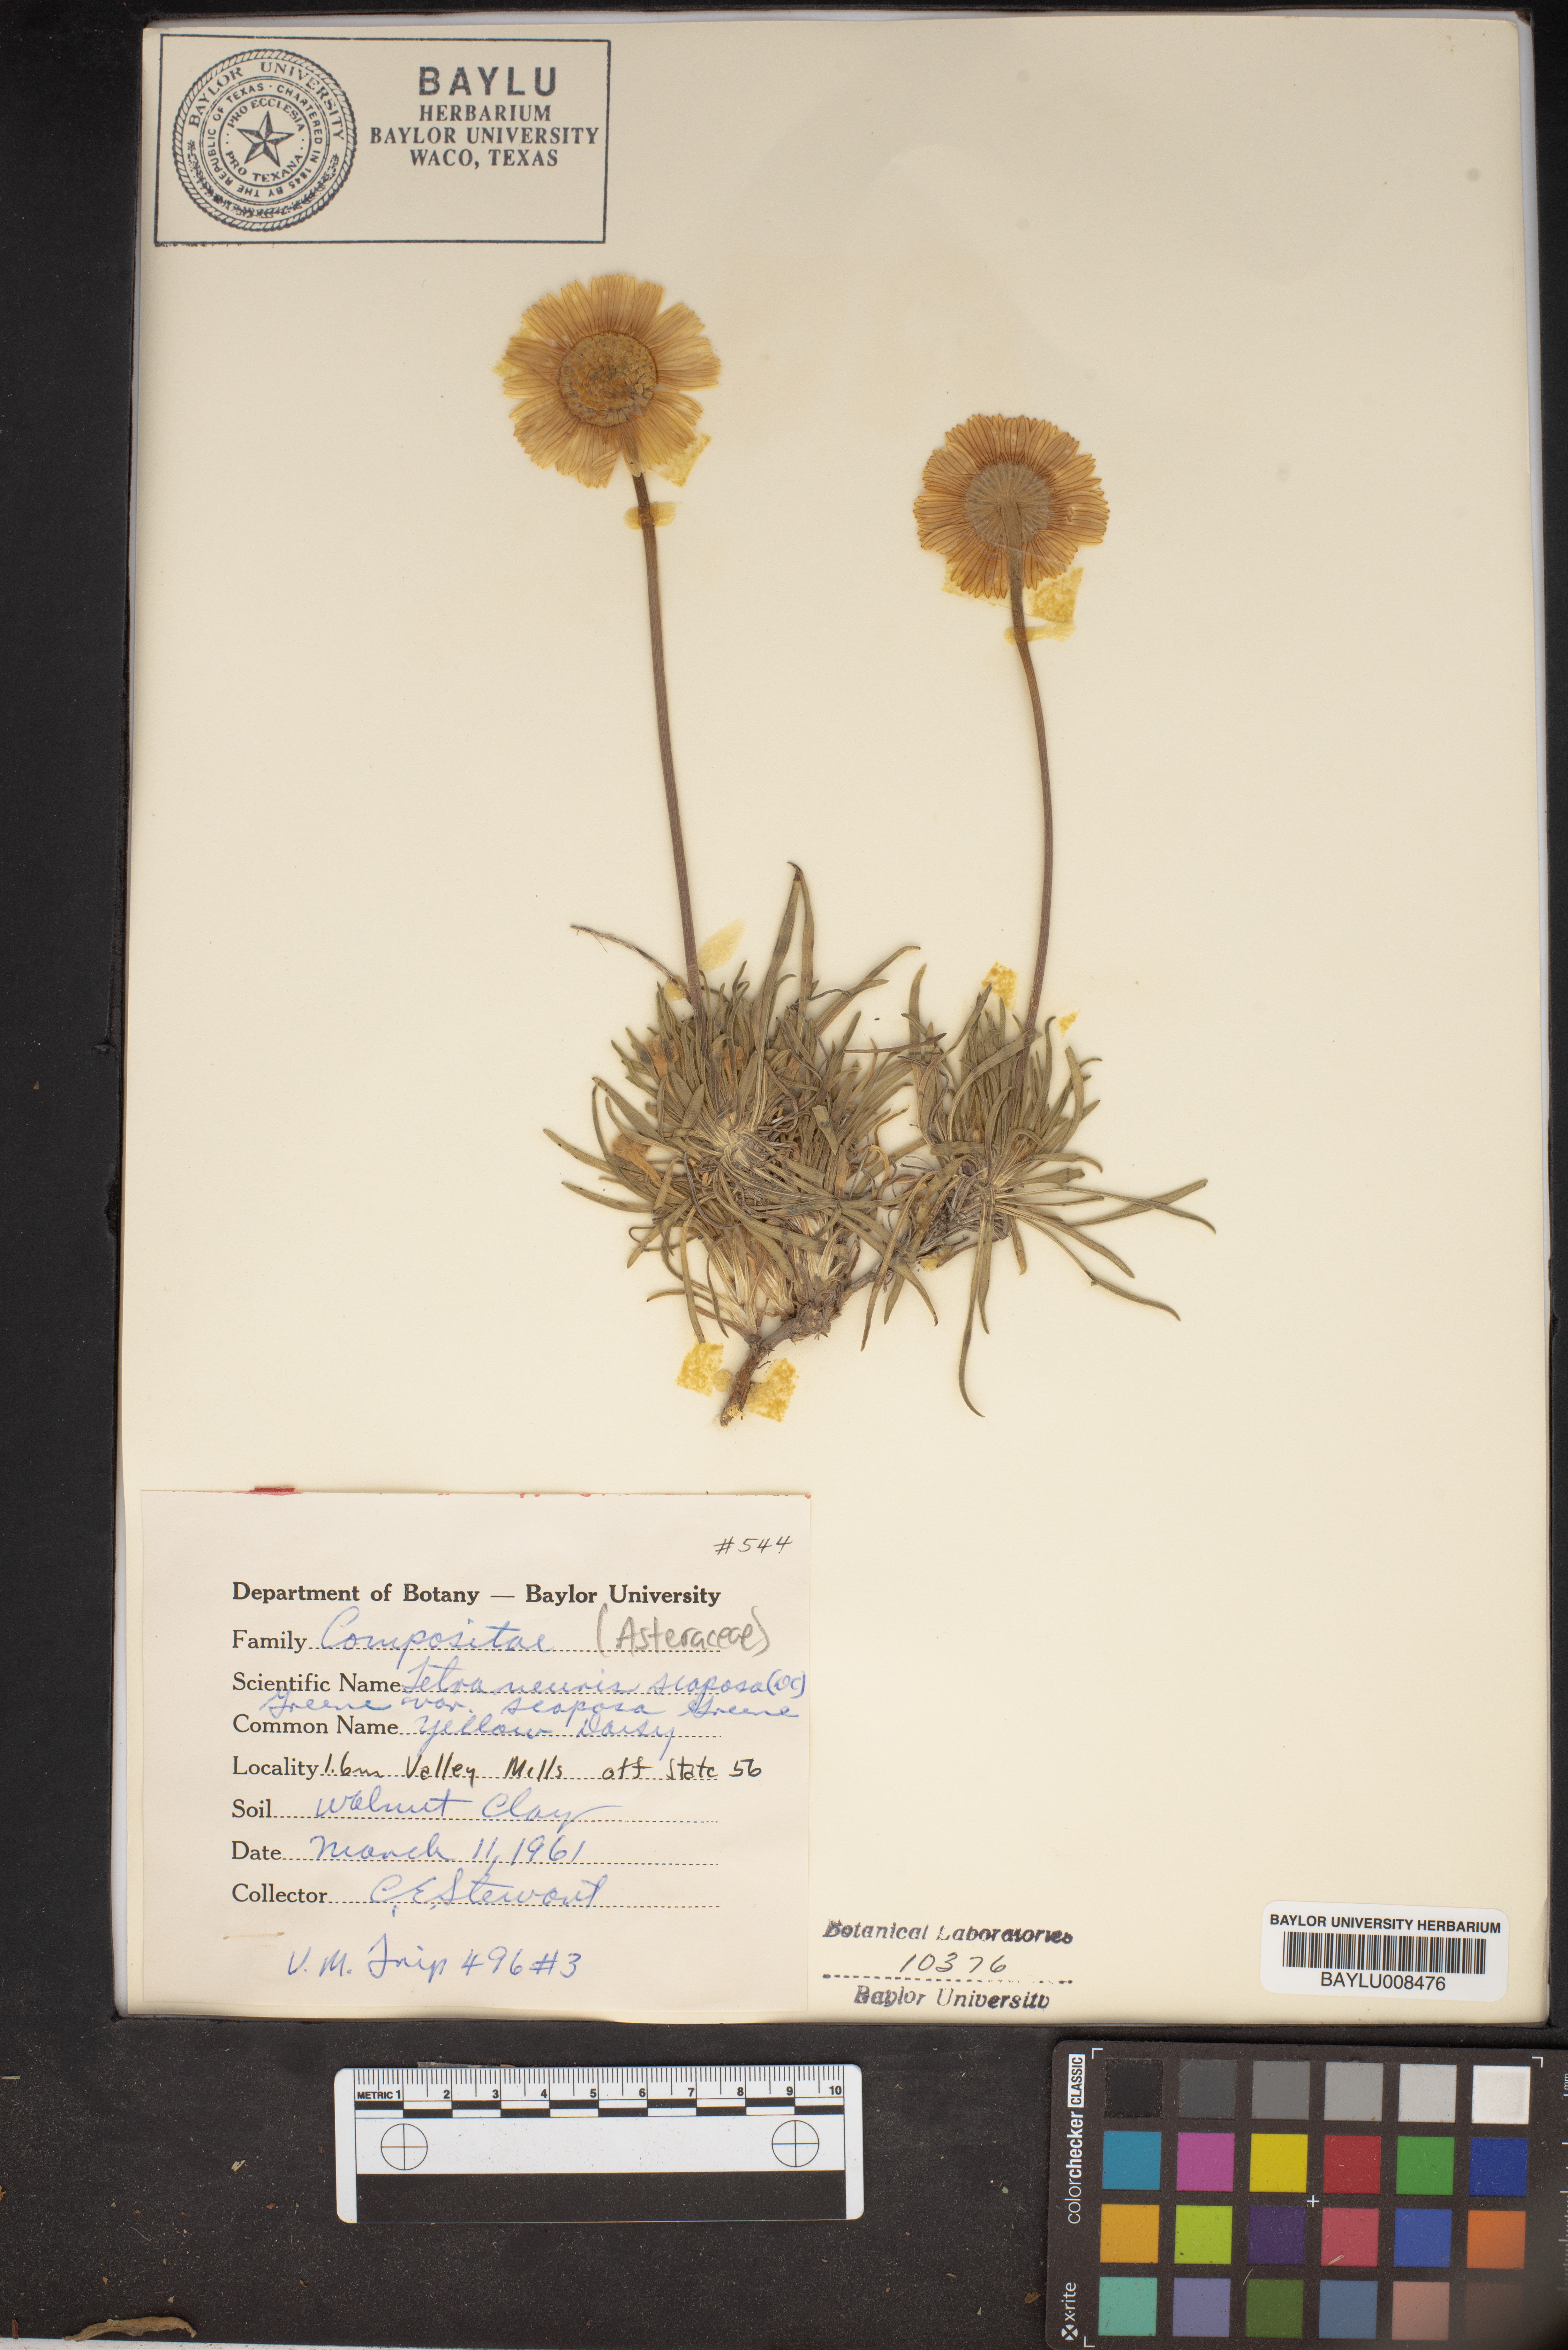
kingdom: Plantae
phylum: Tracheophyta
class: Magnoliopsida
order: Asterales
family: Asteraceae
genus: Tetraneuris
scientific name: Tetraneuris scaposa
